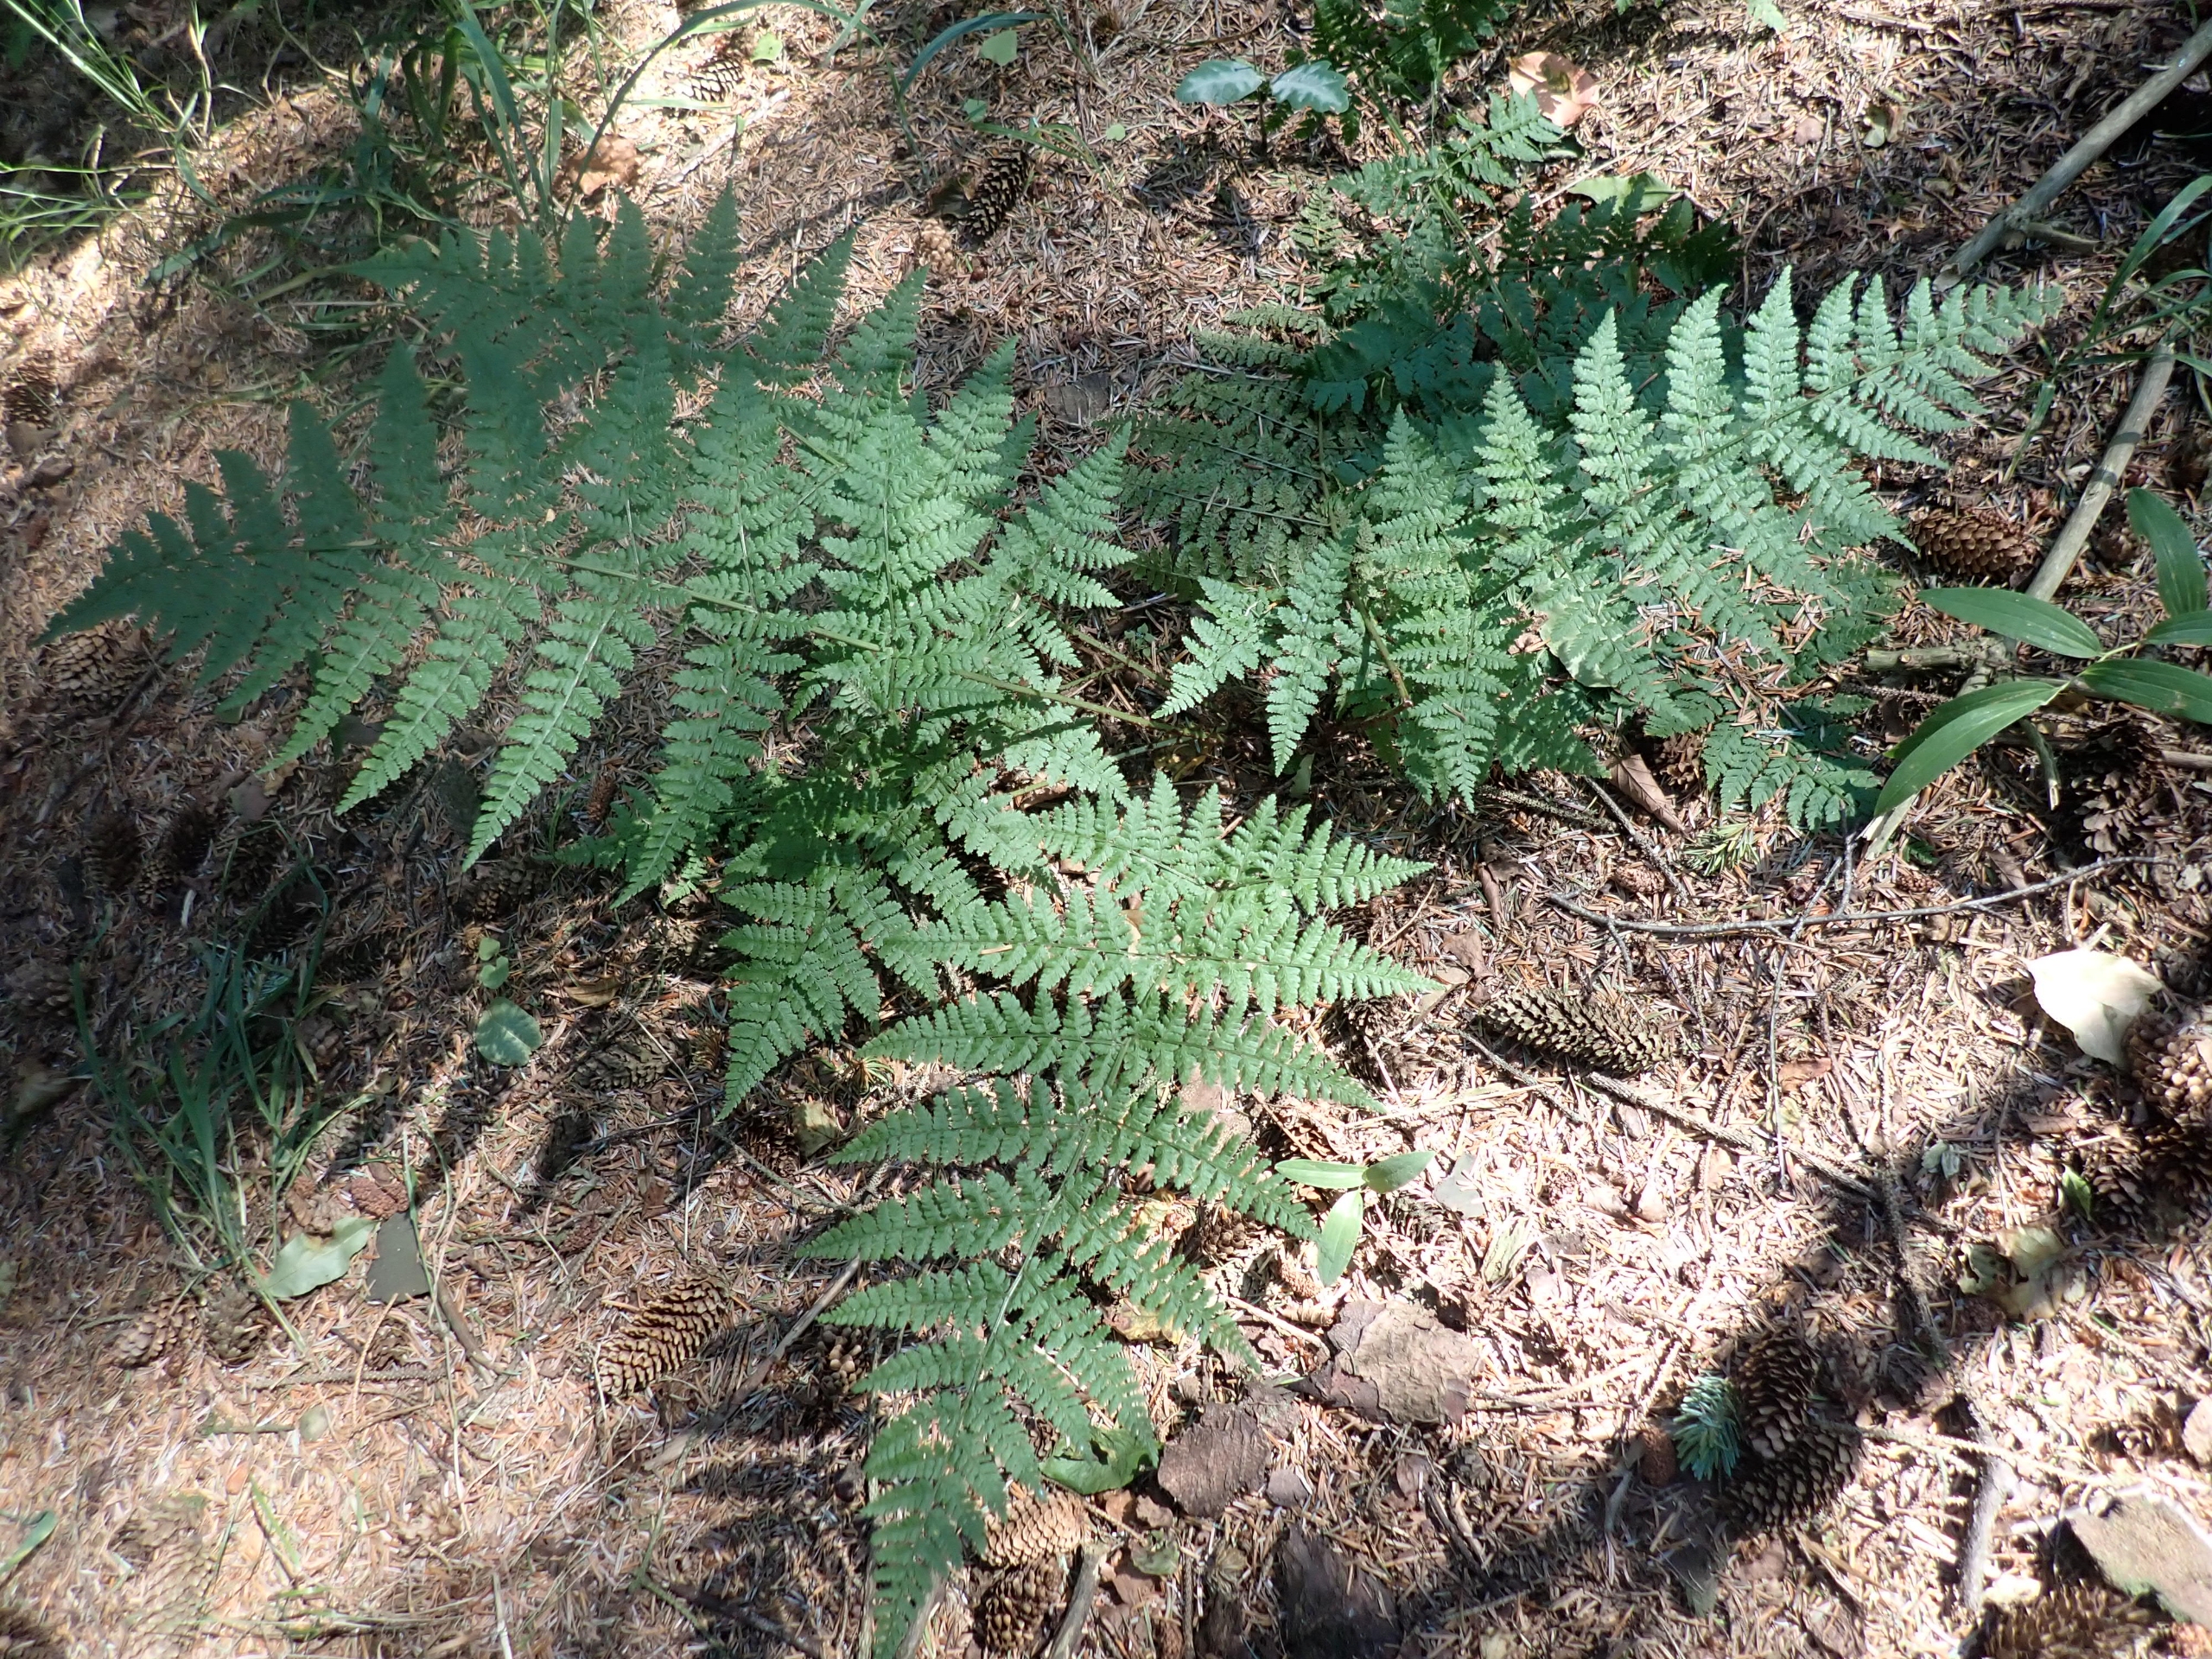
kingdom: Plantae
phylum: Tracheophyta
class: Polypodiopsida
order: Polypodiales
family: Dryopteridaceae
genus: Dryopteris
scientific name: Dryopteris dilatata
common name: Bredbladet mangeløv
